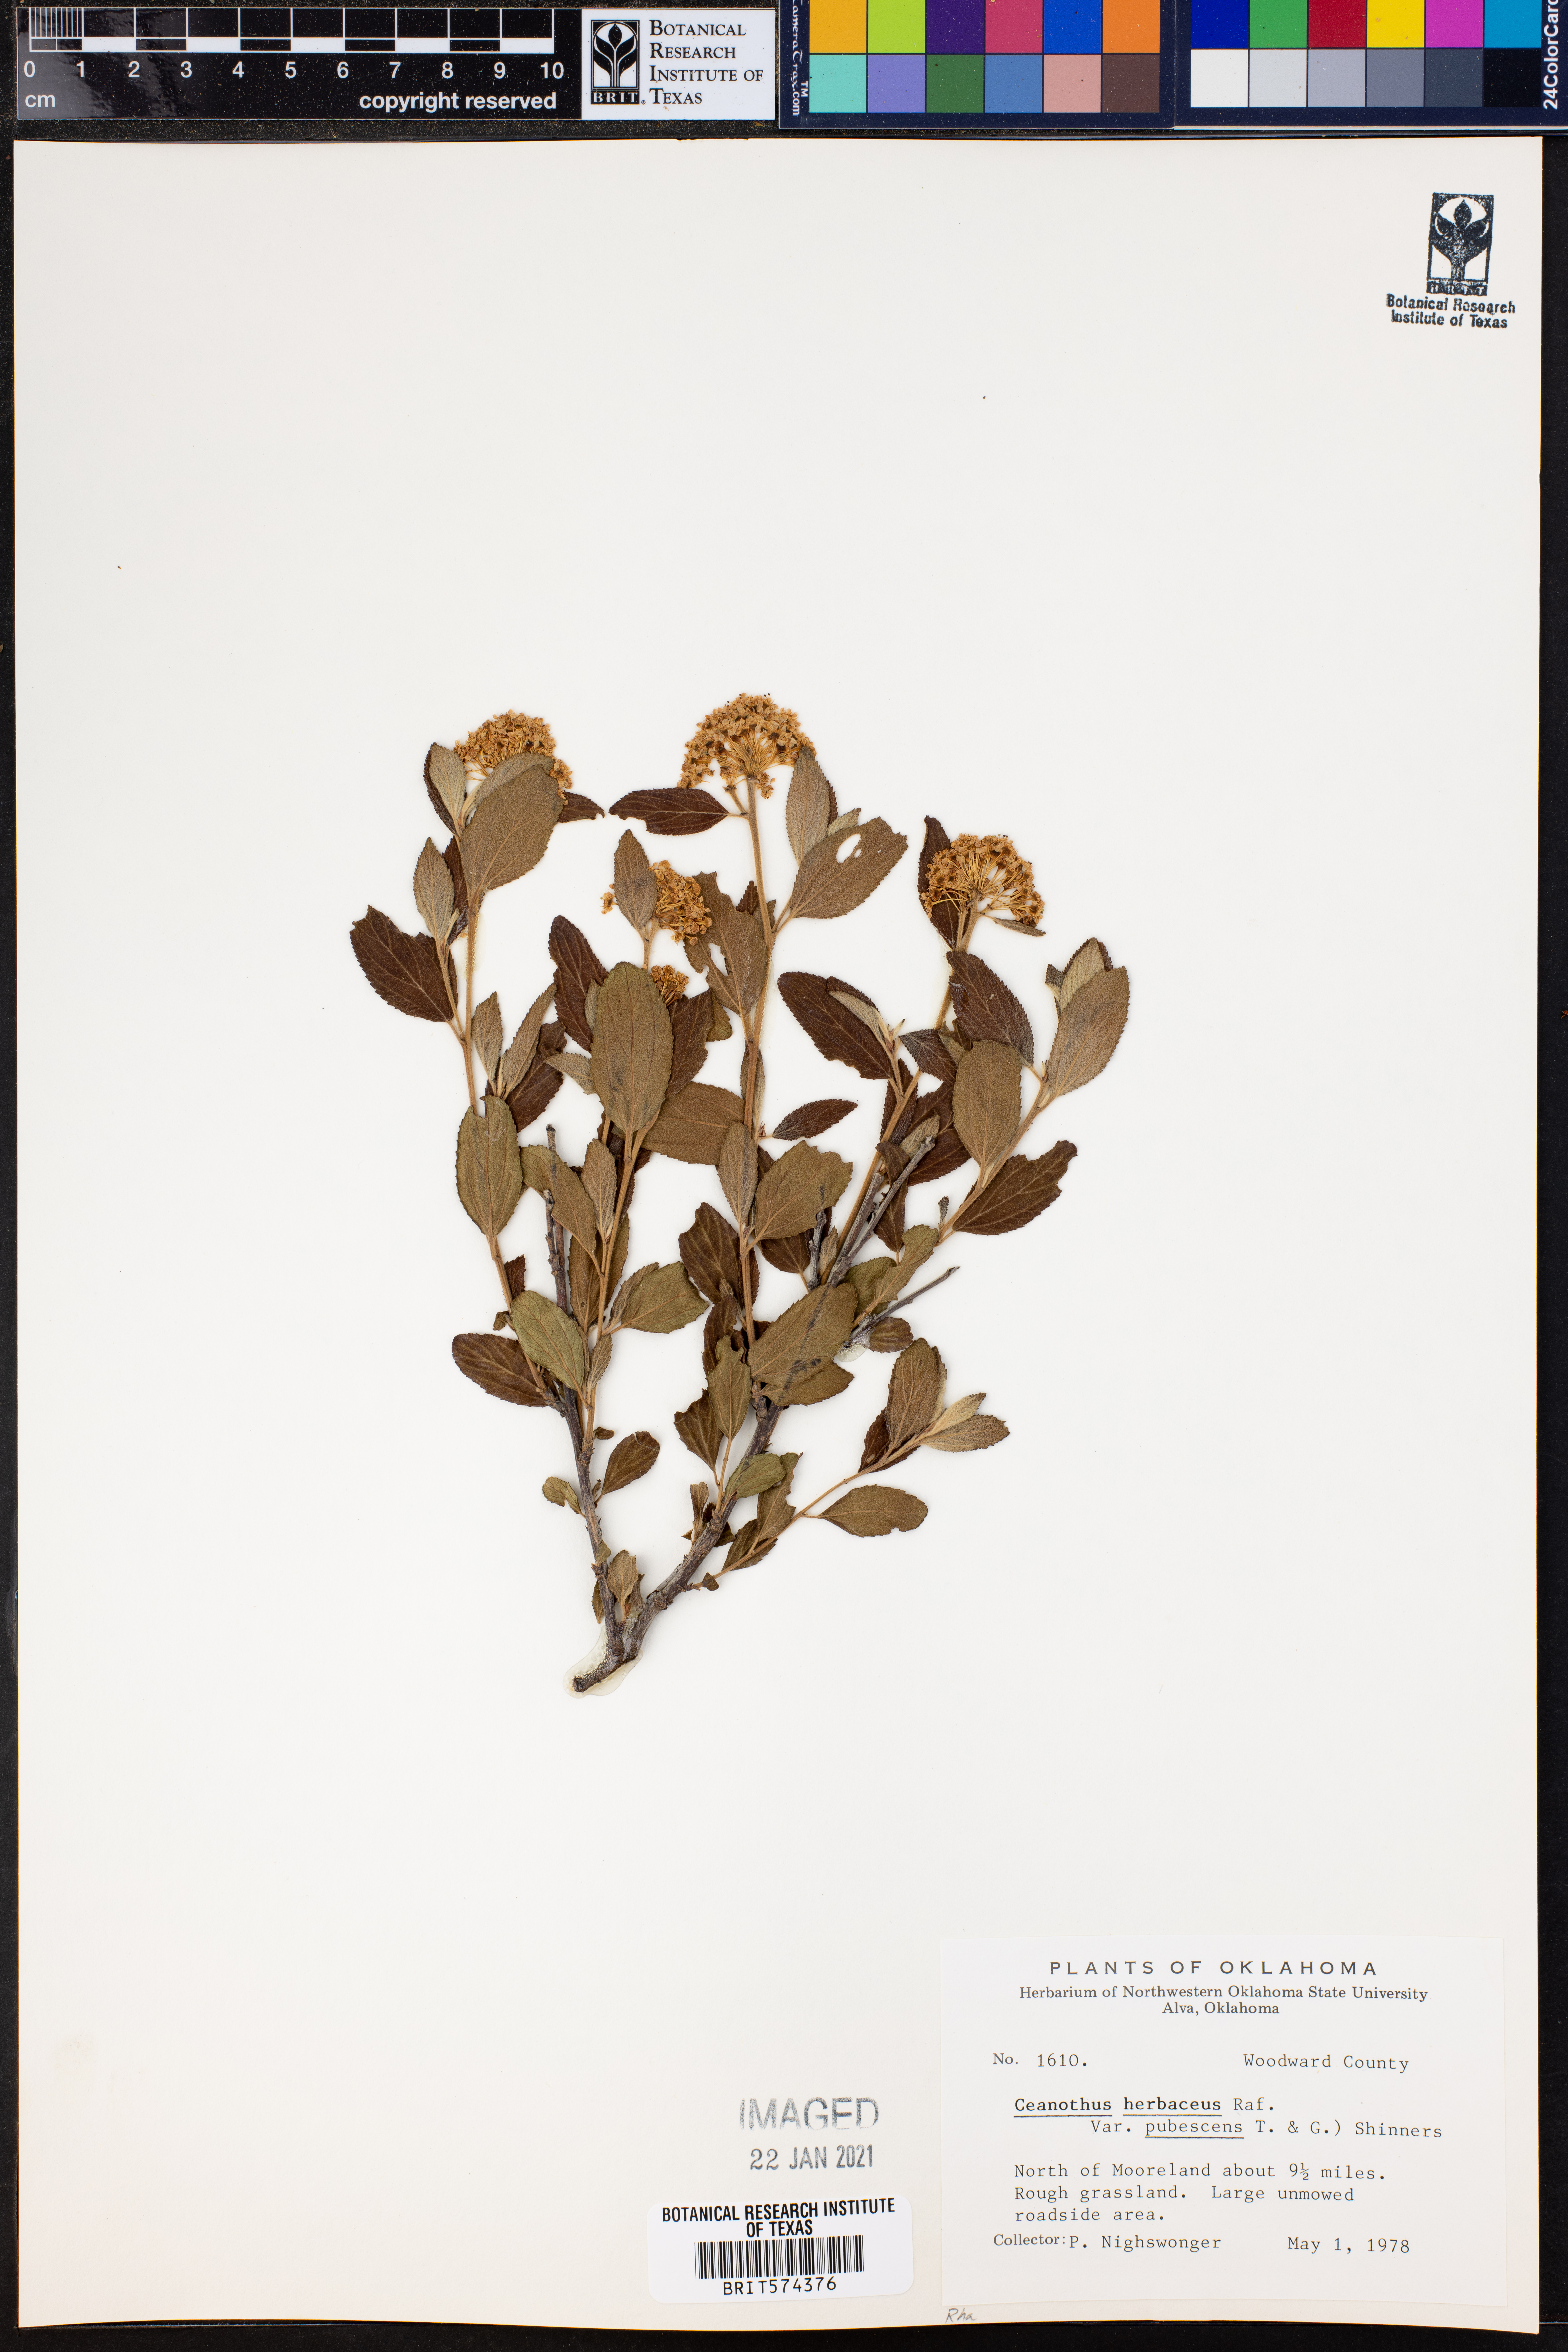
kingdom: Plantae
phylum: Tracheophyta
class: Magnoliopsida
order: Rosales
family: Rhamnaceae
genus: Ceanothus
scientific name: Ceanothus herbaceus
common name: Inland ceanothus
